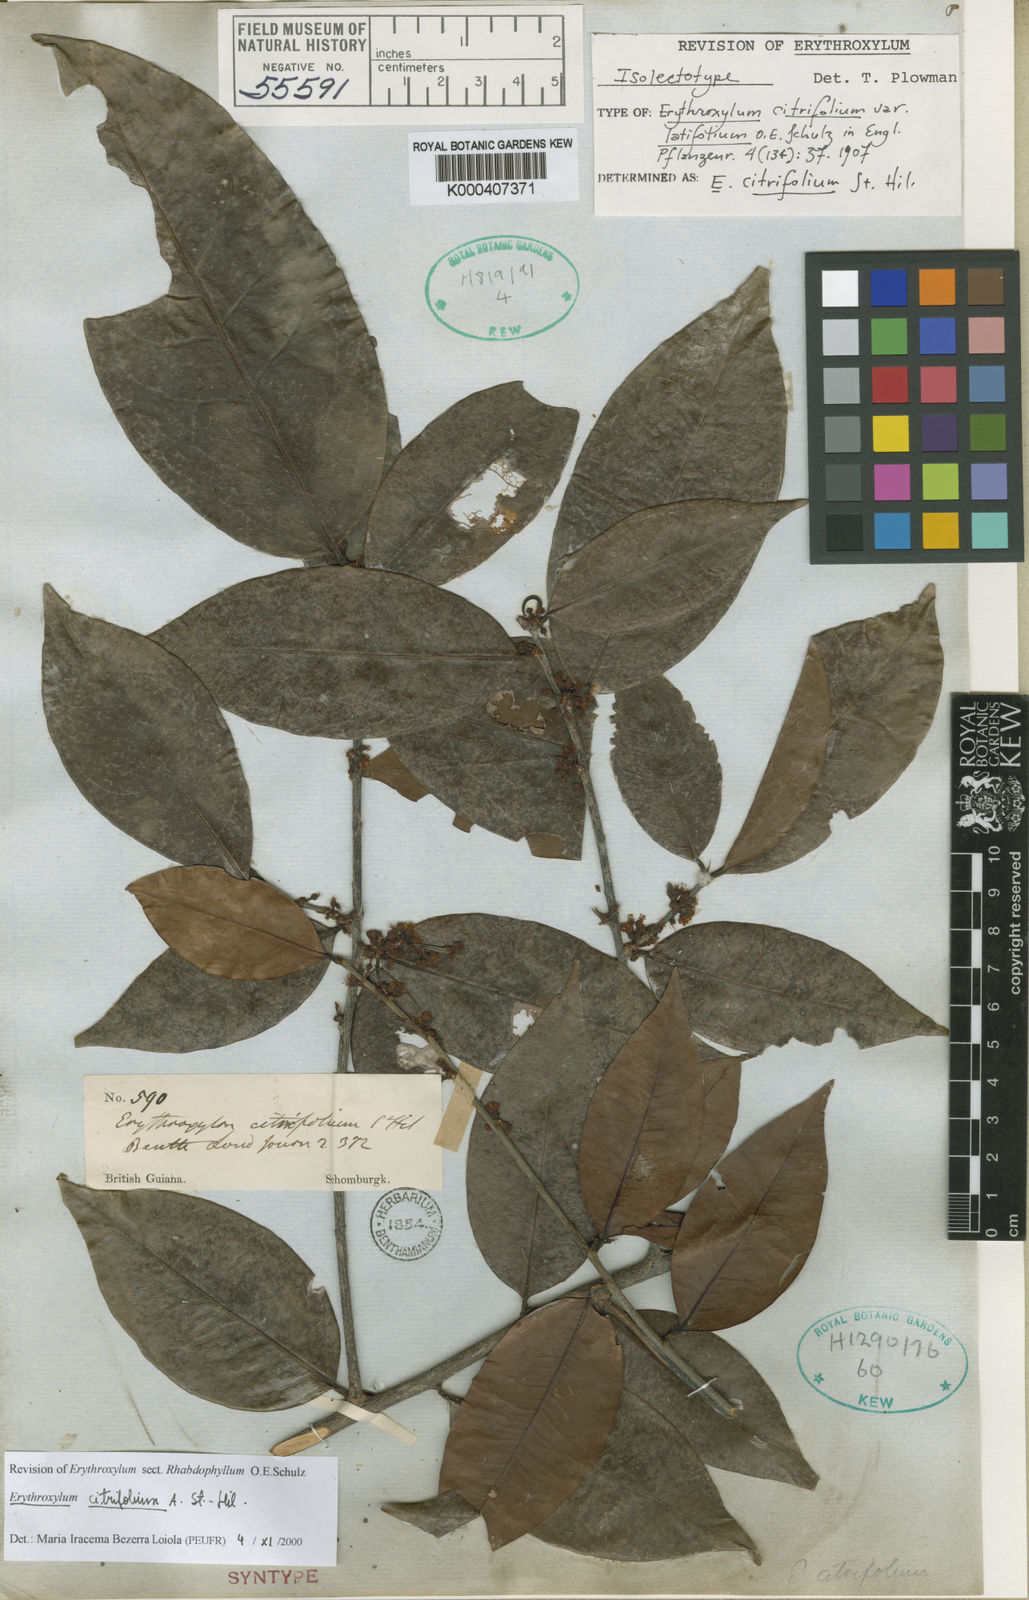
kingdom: Plantae
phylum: Tracheophyta
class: Magnoliopsida
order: Malpighiales
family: Erythroxylaceae
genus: Erythroxylum
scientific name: Erythroxylum citrifolium
